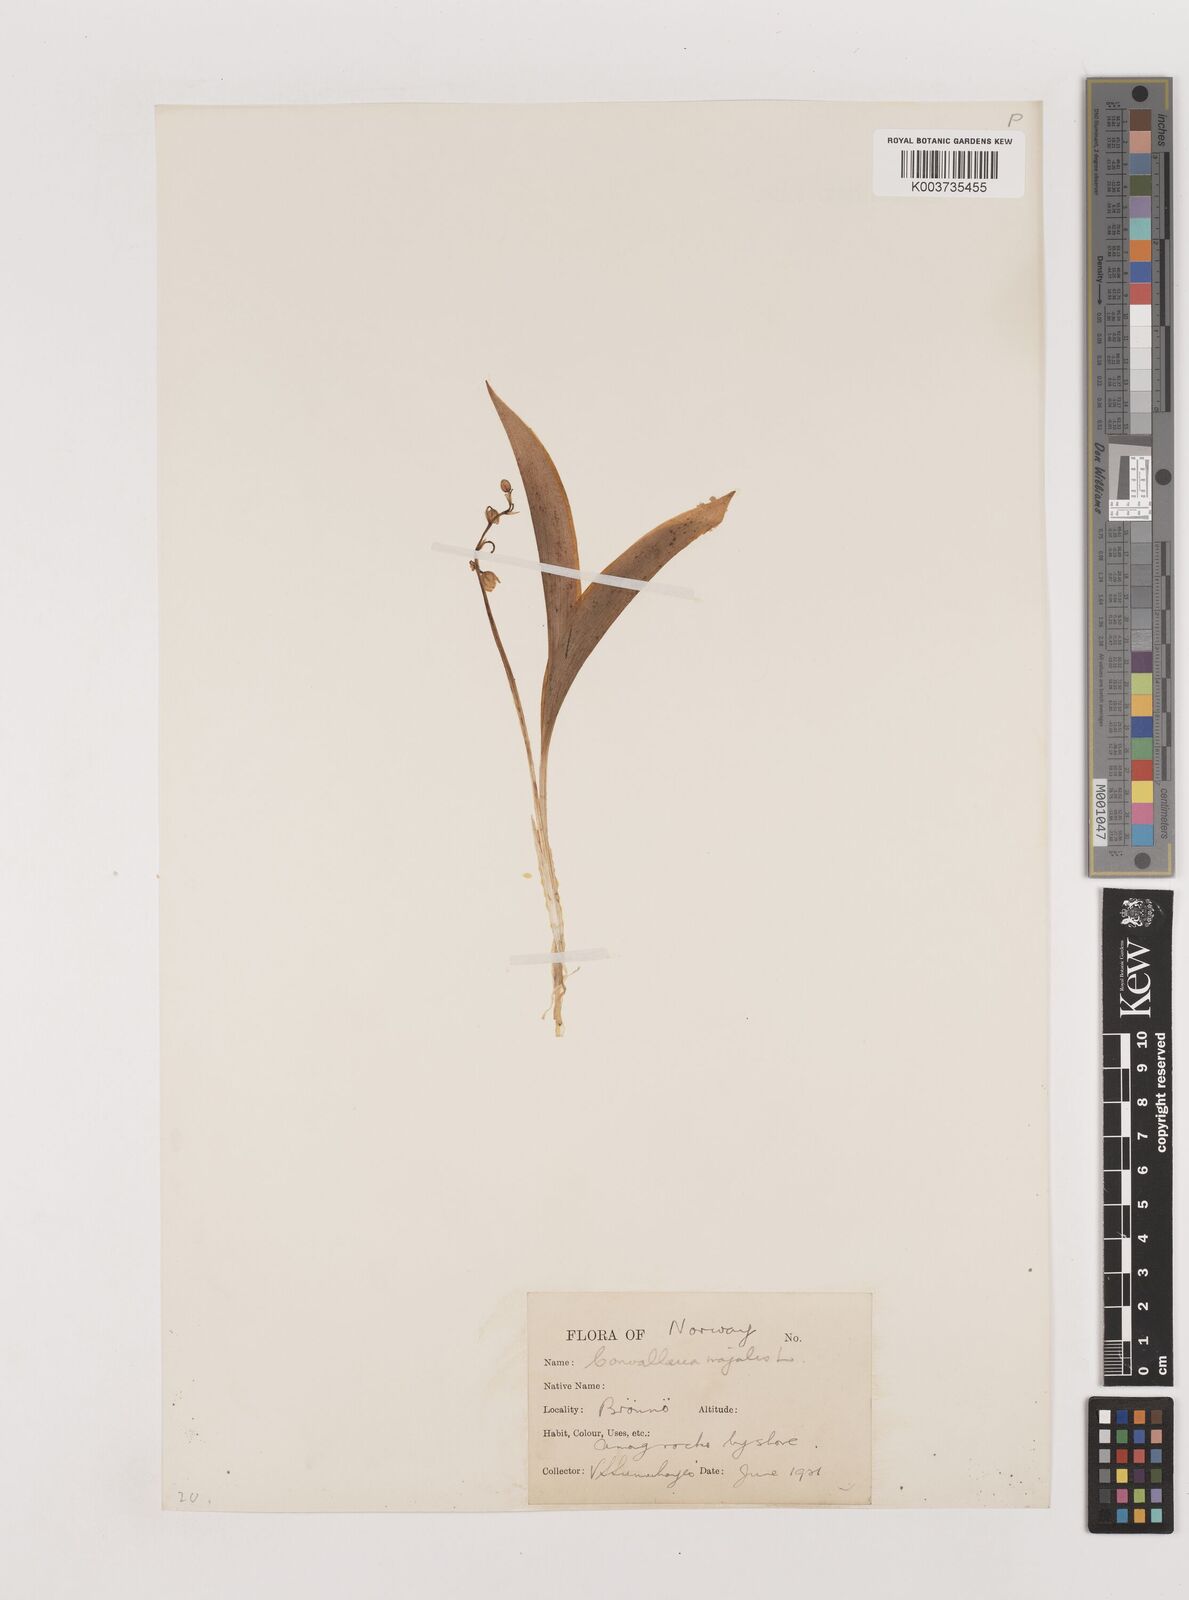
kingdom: Plantae
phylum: Tracheophyta
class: Liliopsida
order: Asparagales
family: Asparagaceae
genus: Convallaria
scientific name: Convallaria majalis
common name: Lily-of-the-valley
